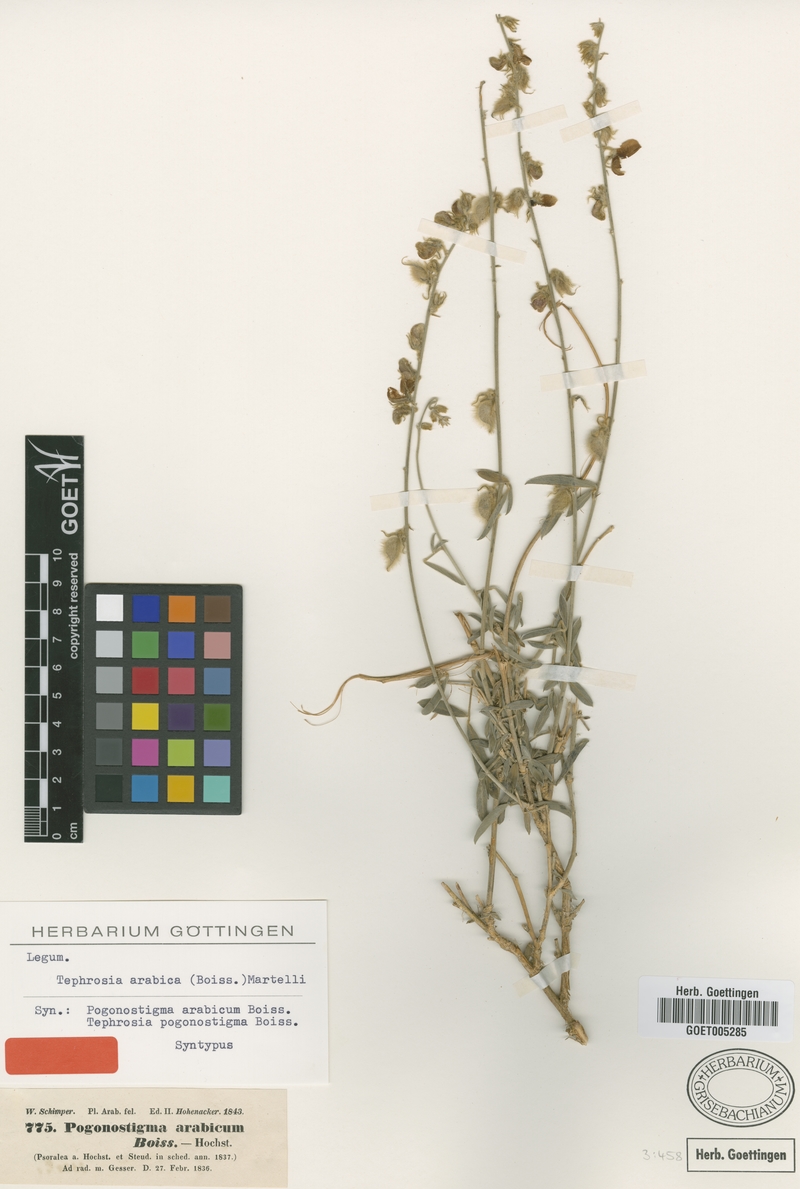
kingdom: Plantae
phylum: Tracheophyta
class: Magnoliopsida
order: Fabales
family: Fabaceae
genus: Tephrosia
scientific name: Tephrosia nubica
